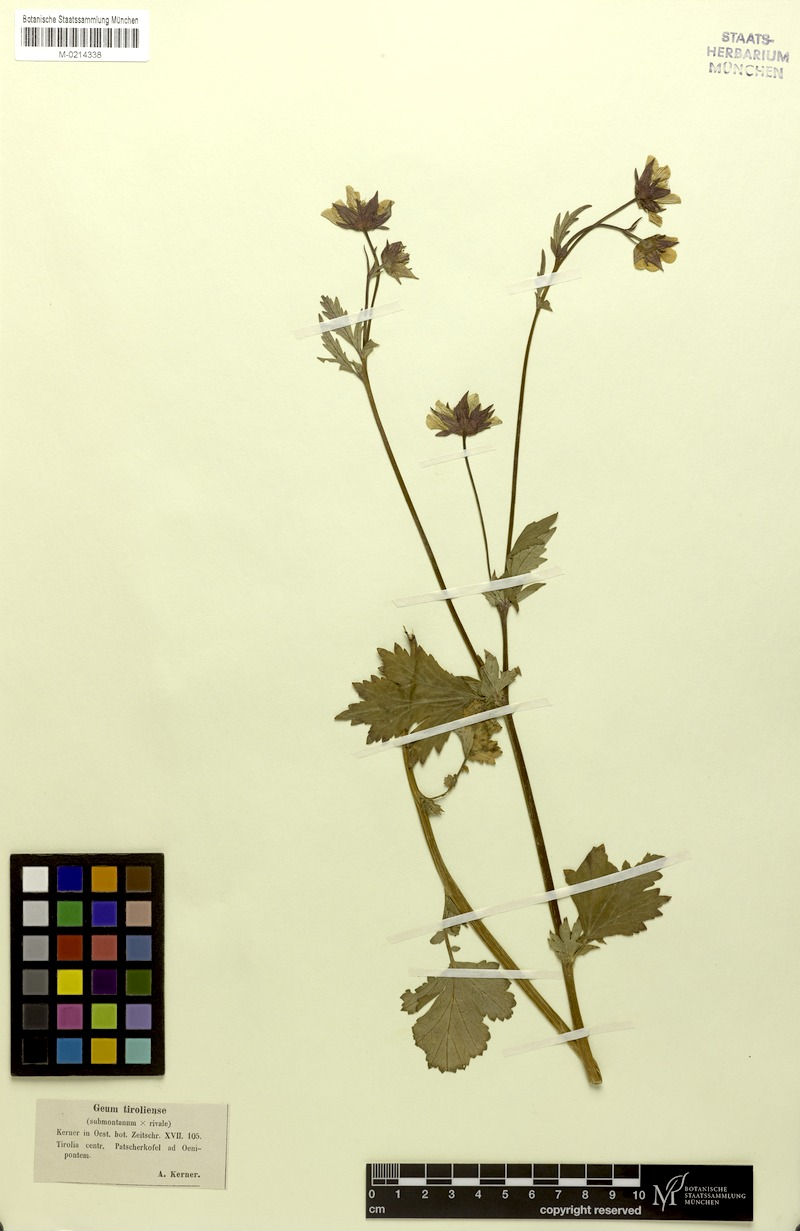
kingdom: Plantae
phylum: Tracheophyta
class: Magnoliopsida
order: Rosales
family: Rosaceae
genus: Geum
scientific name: Geum sudeticum
